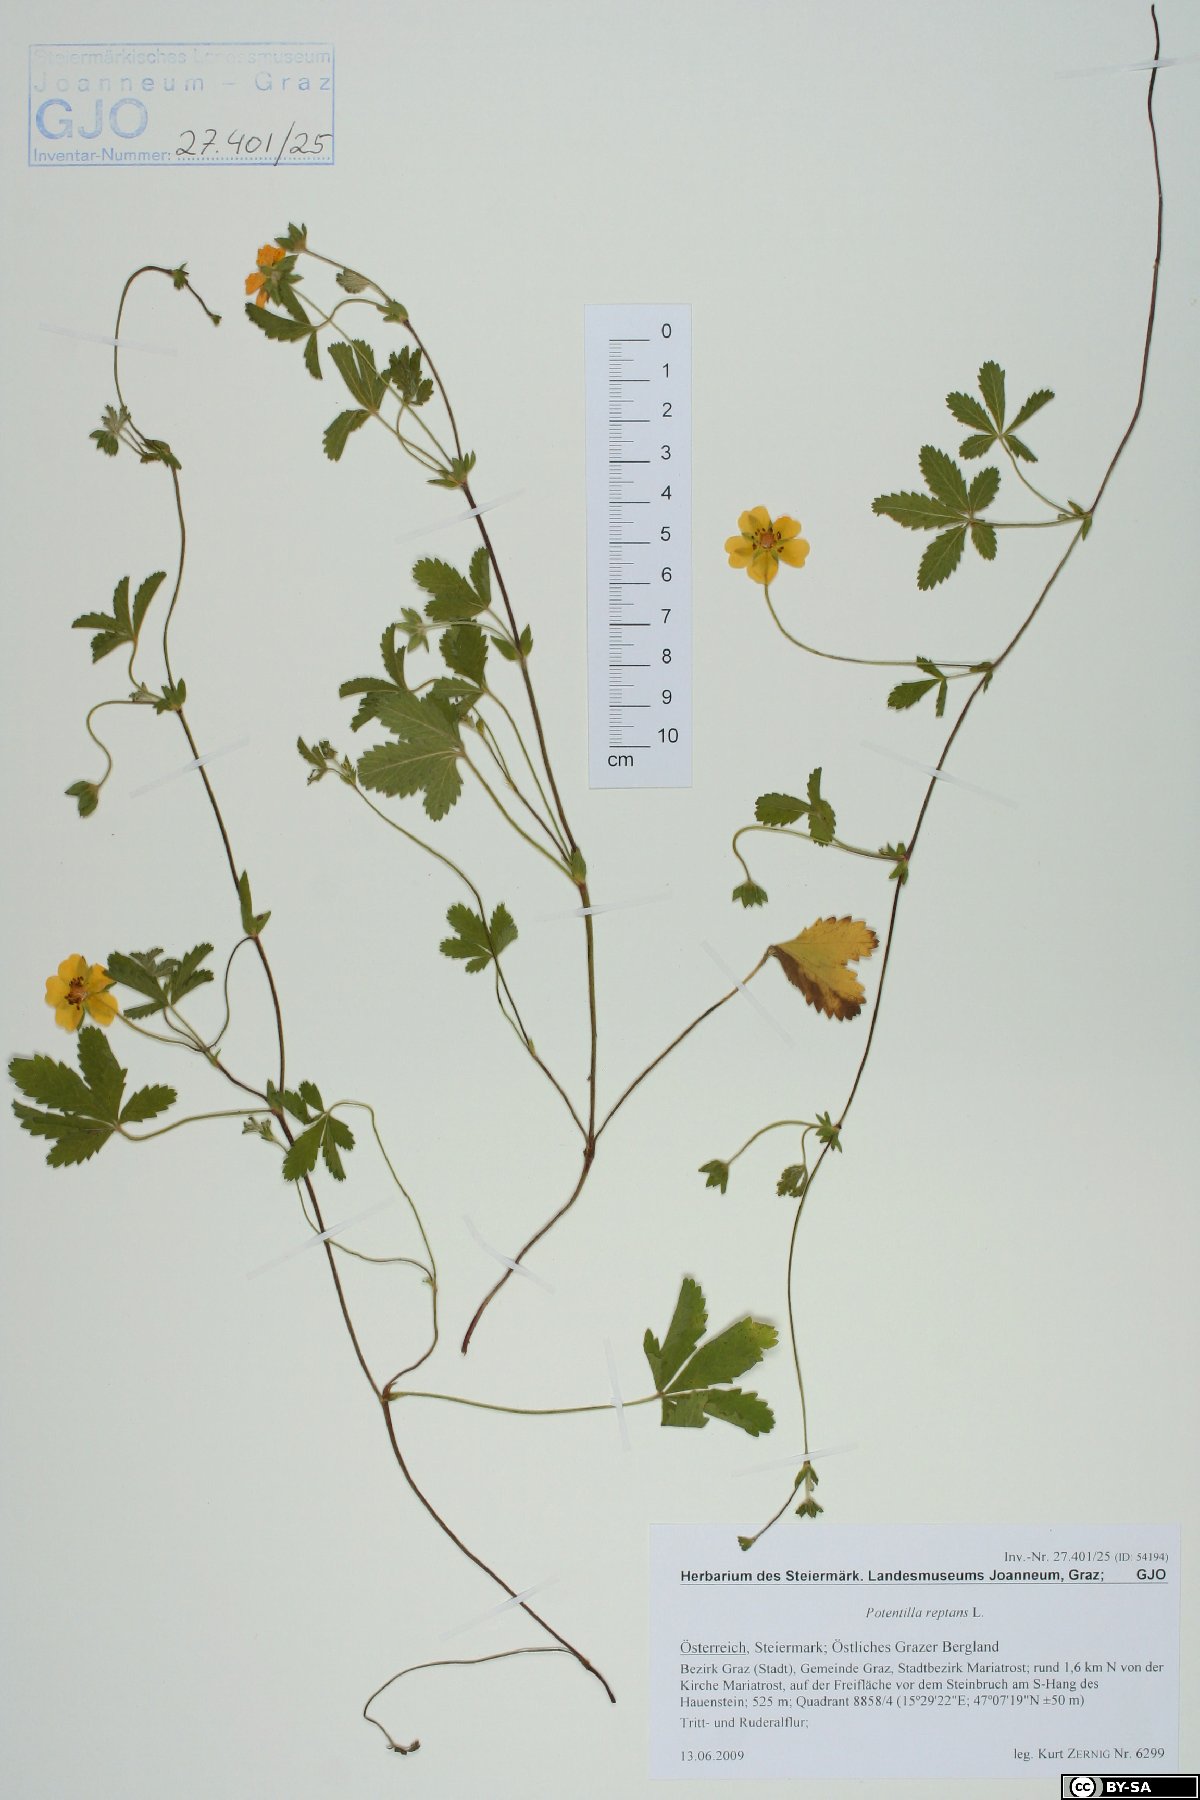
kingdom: Plantae
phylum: Tracheophyta
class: Magnoliopsida
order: Rosales
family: Rosaceae
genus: Potentilla
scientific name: Potentilla reptans
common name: Creeping cinquefoil
